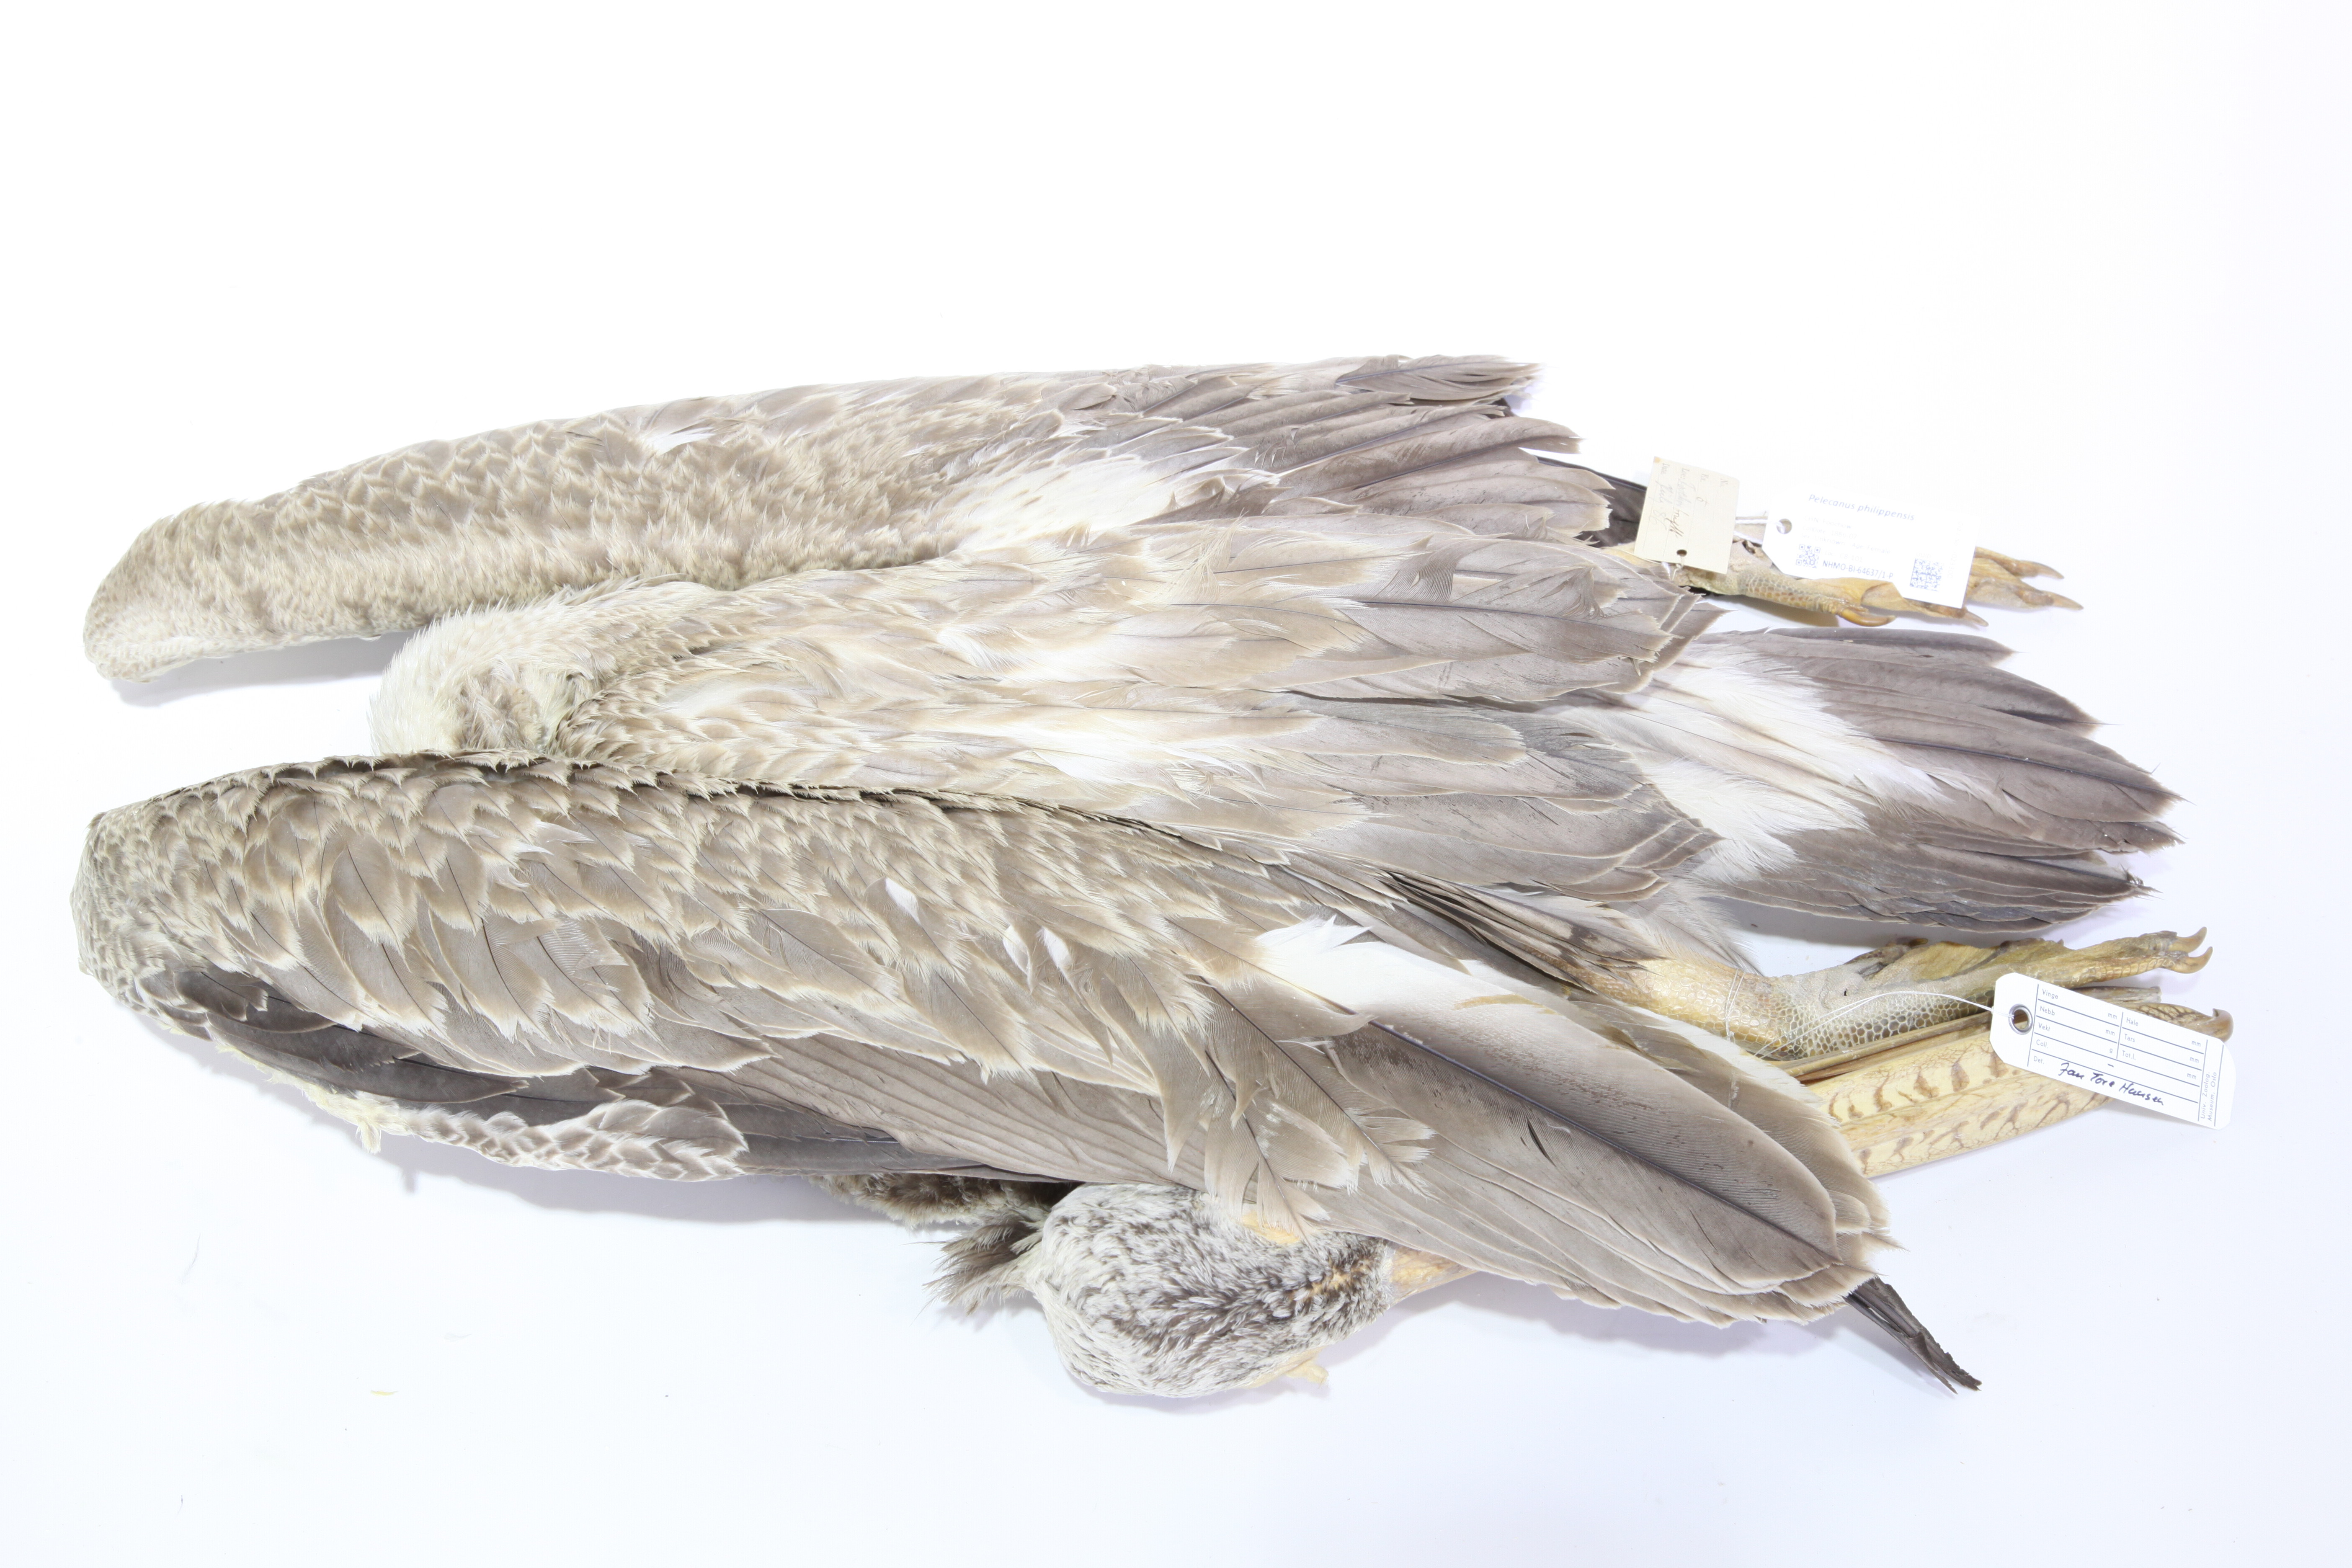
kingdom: Animalia
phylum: Chordata
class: Aves
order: Pelecaniformes
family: Pelecanidae
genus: Pelecanus
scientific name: Pelecanus philippensis
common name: Spot-billed pelican
